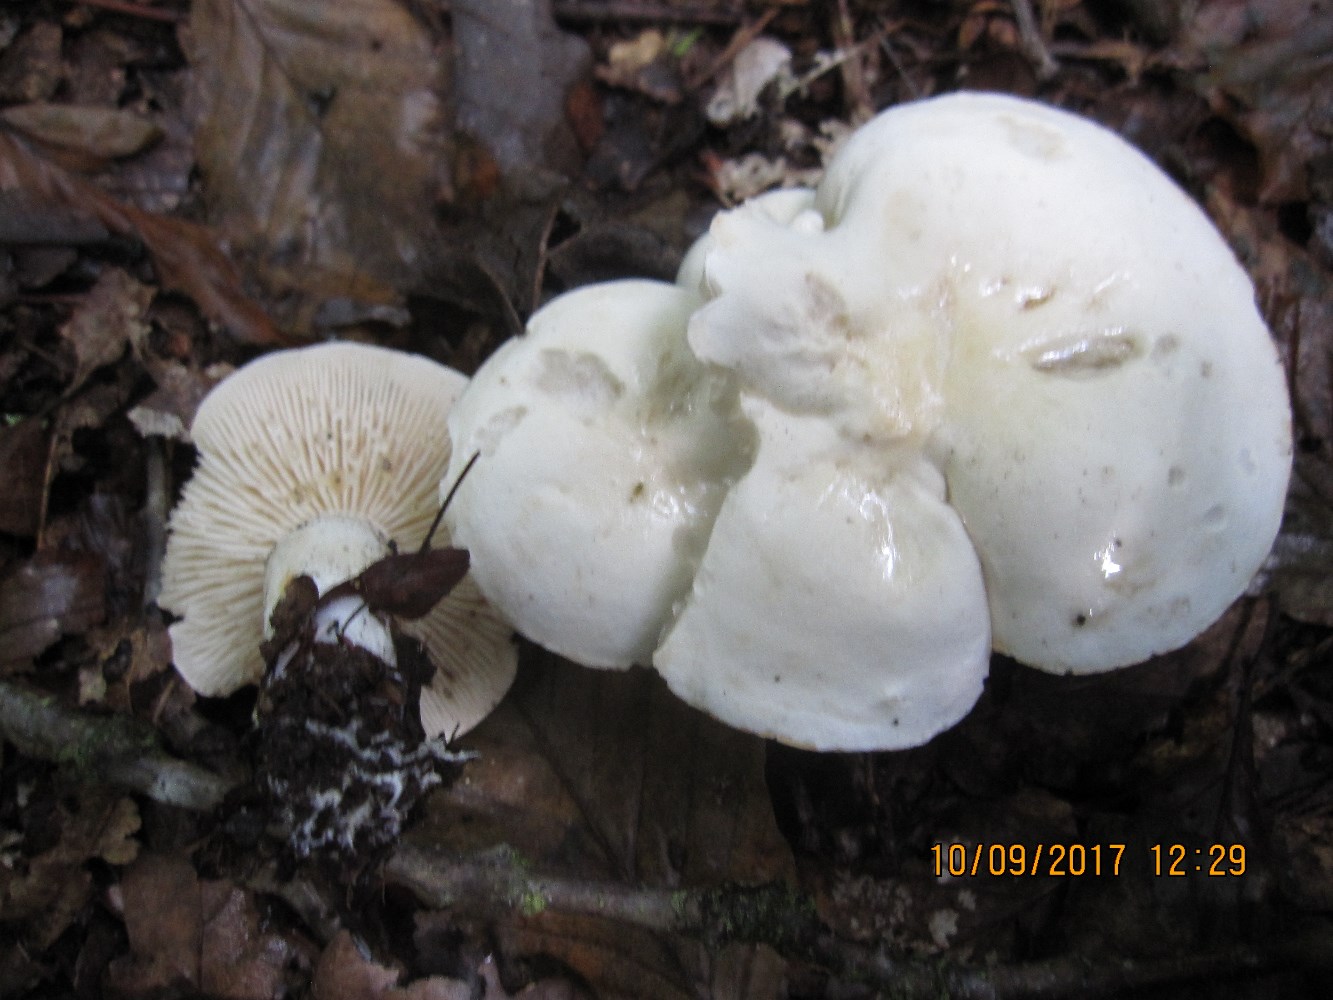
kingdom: Fungi
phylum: Basidiomycota
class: Agaricomycetes
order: Agaricales
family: Tricholomataceae
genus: Tricholoma
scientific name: Tricholoma album
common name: honning-ridderhat
